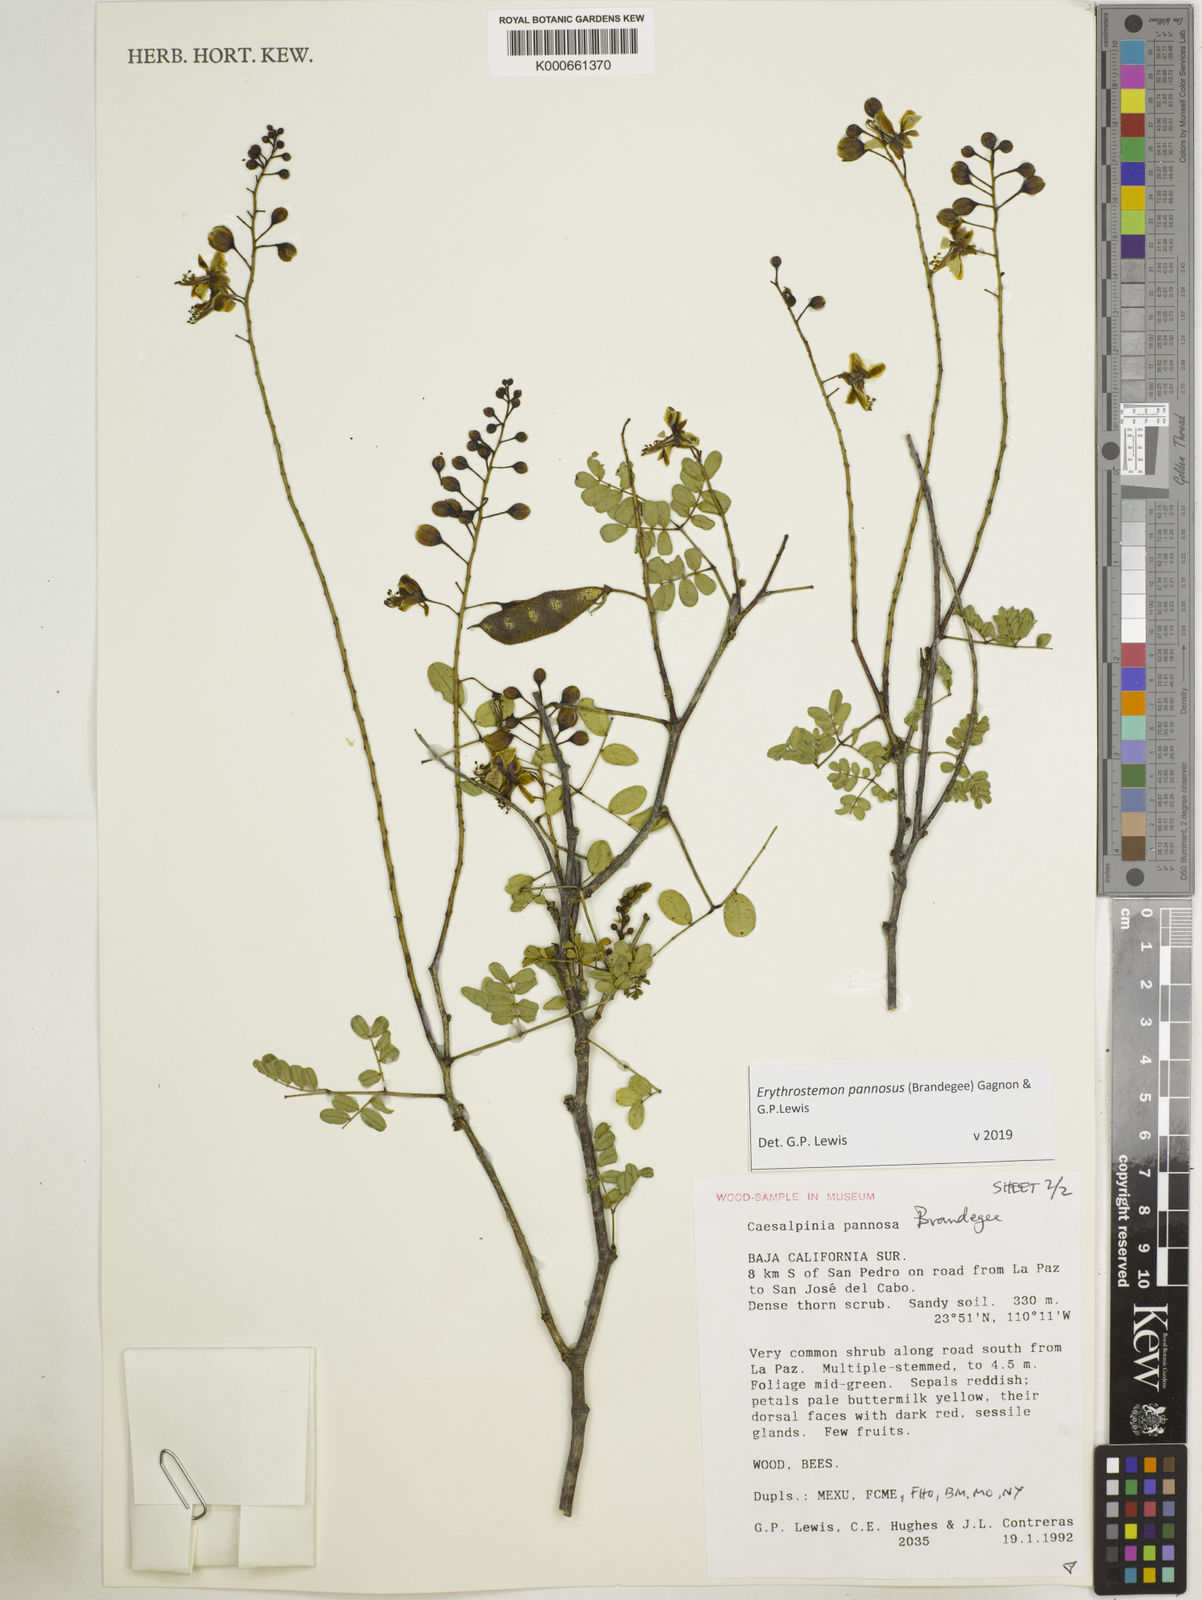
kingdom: Plantae
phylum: Tracheophyta
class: Magnoliopsida
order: Fabales
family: Fabaceae
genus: Erythrostemon
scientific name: Erythrostemon pannosus
